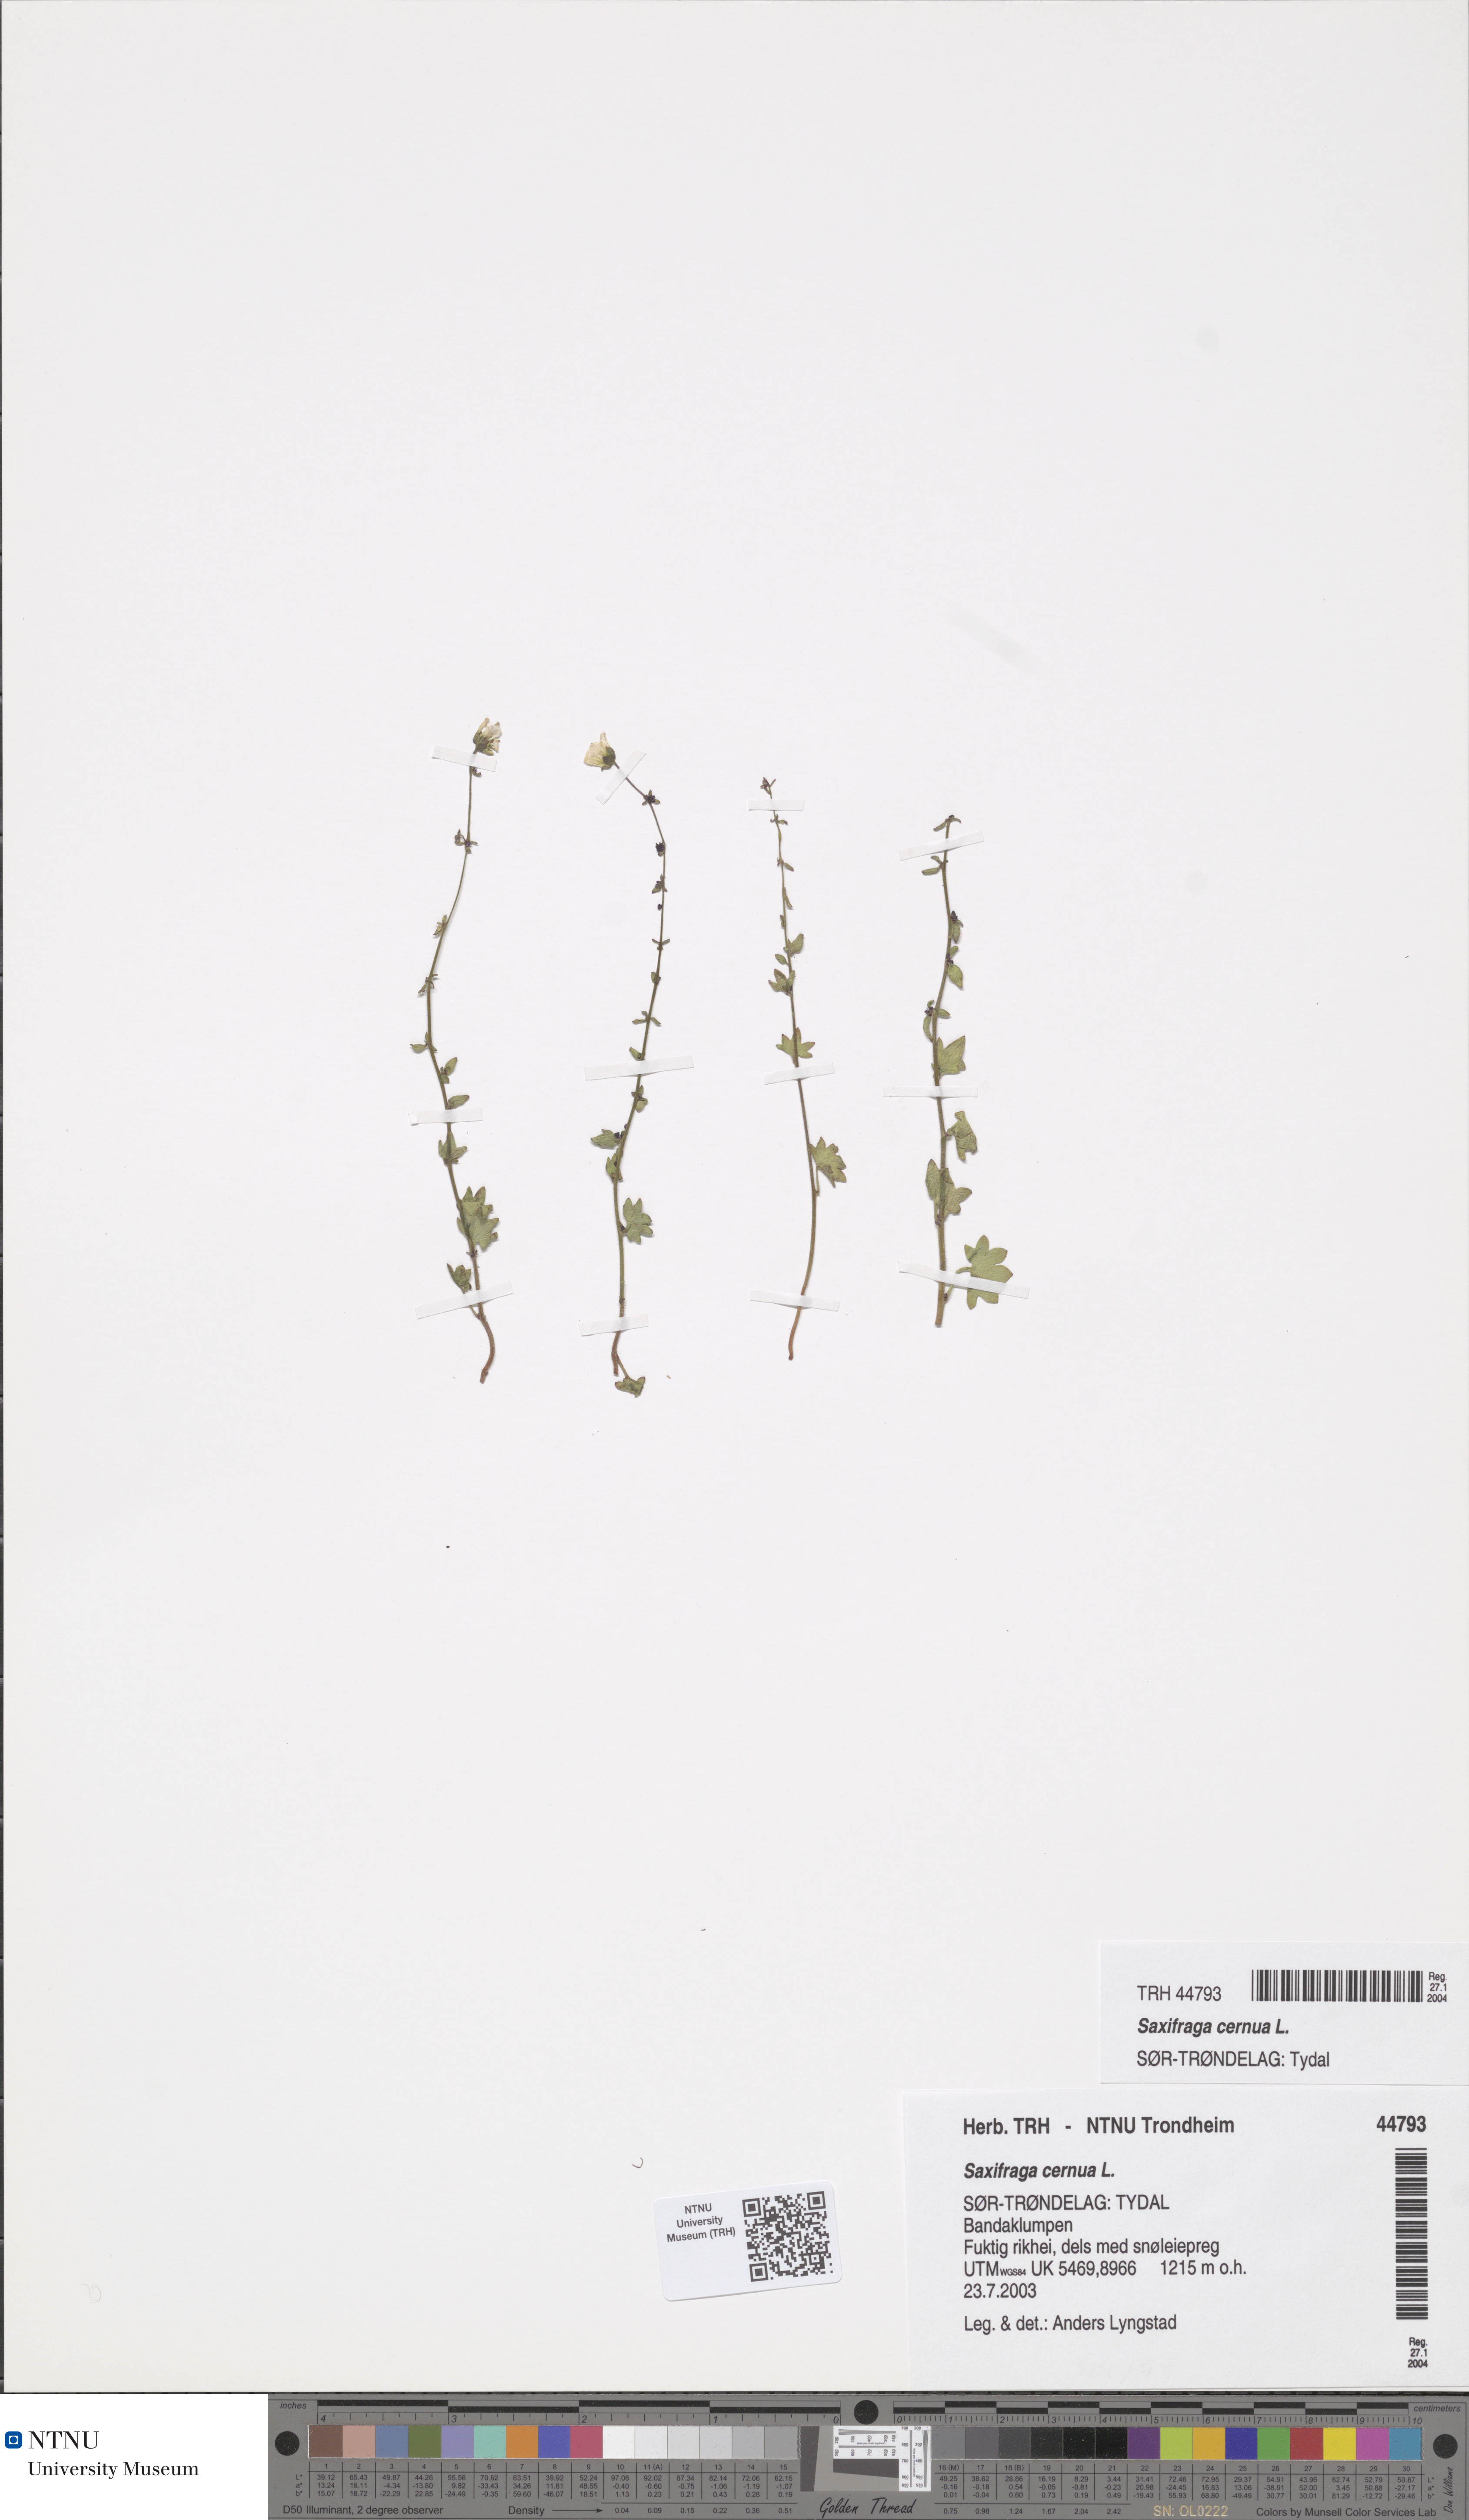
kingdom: Plantae
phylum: Tracheophyta
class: Magnoliopsida
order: Saxifragales
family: Saxifragaceae
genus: Saxifraga
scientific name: Saxifraga cernua
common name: Drooping saxifrage
